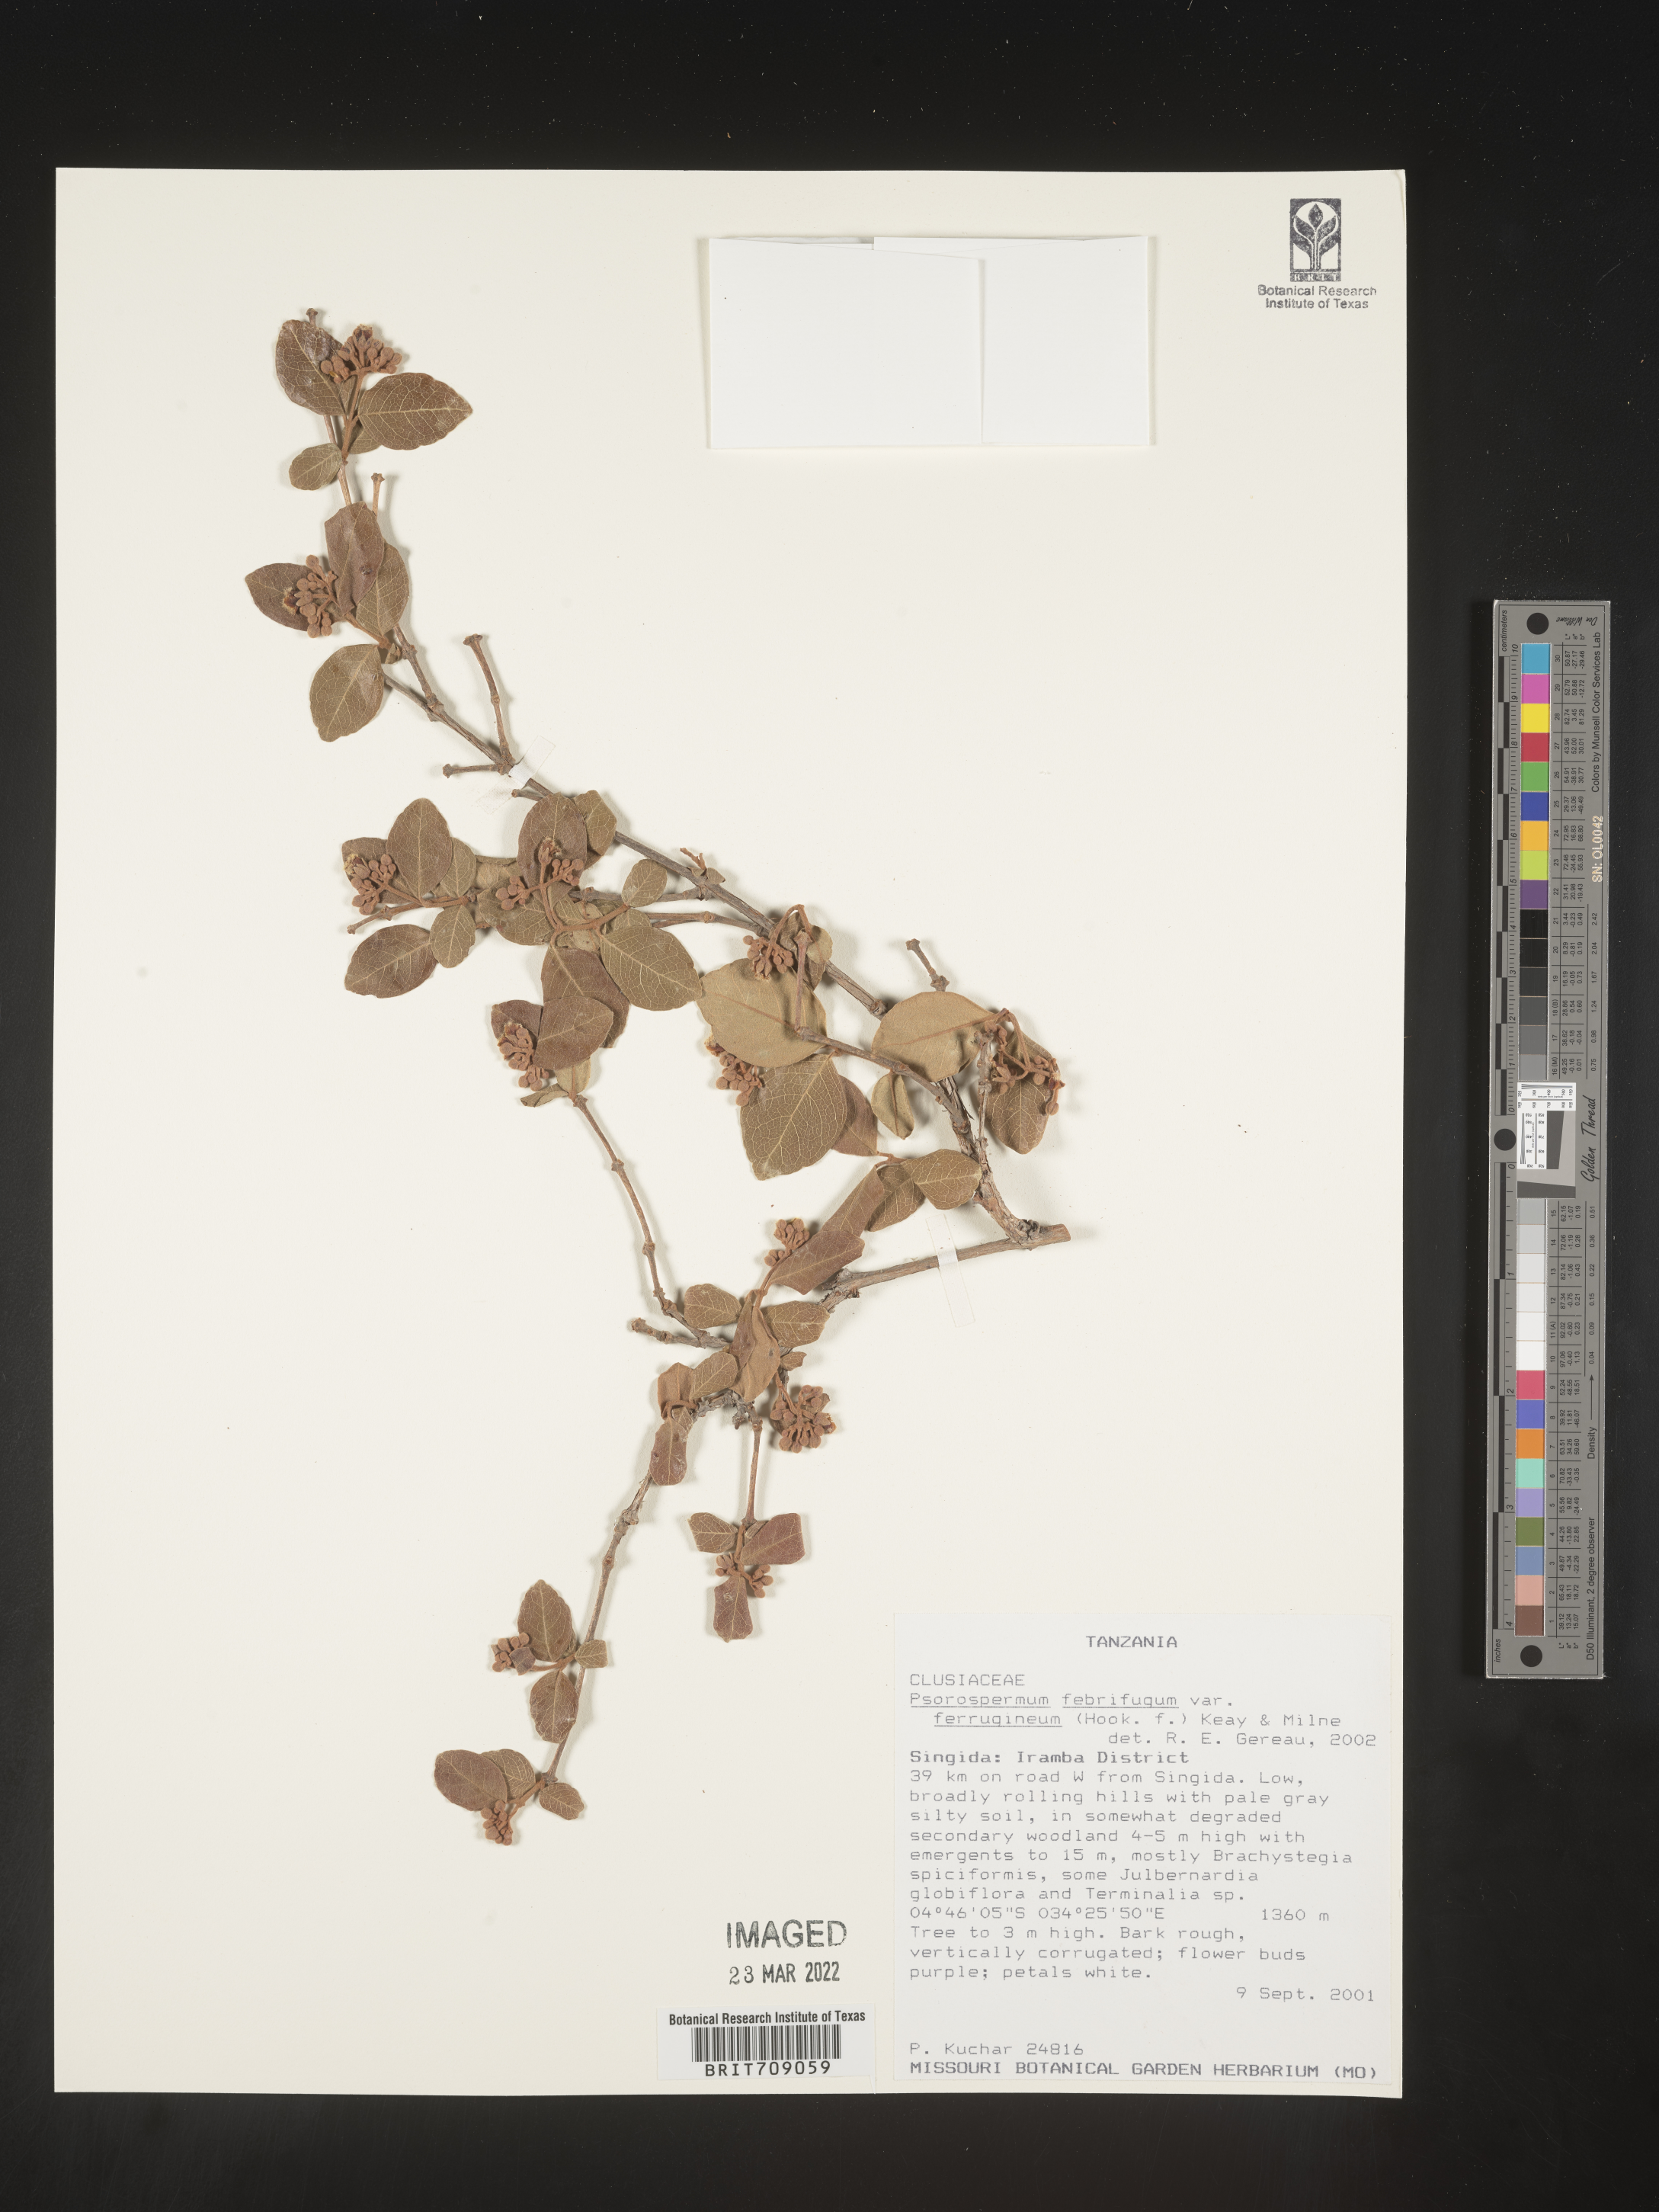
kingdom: Plantae
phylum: Tracheophyta
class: Magnoliopsida
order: Malpighiales
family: Hypericaceae
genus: Psorospermum
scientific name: Psorospermum
